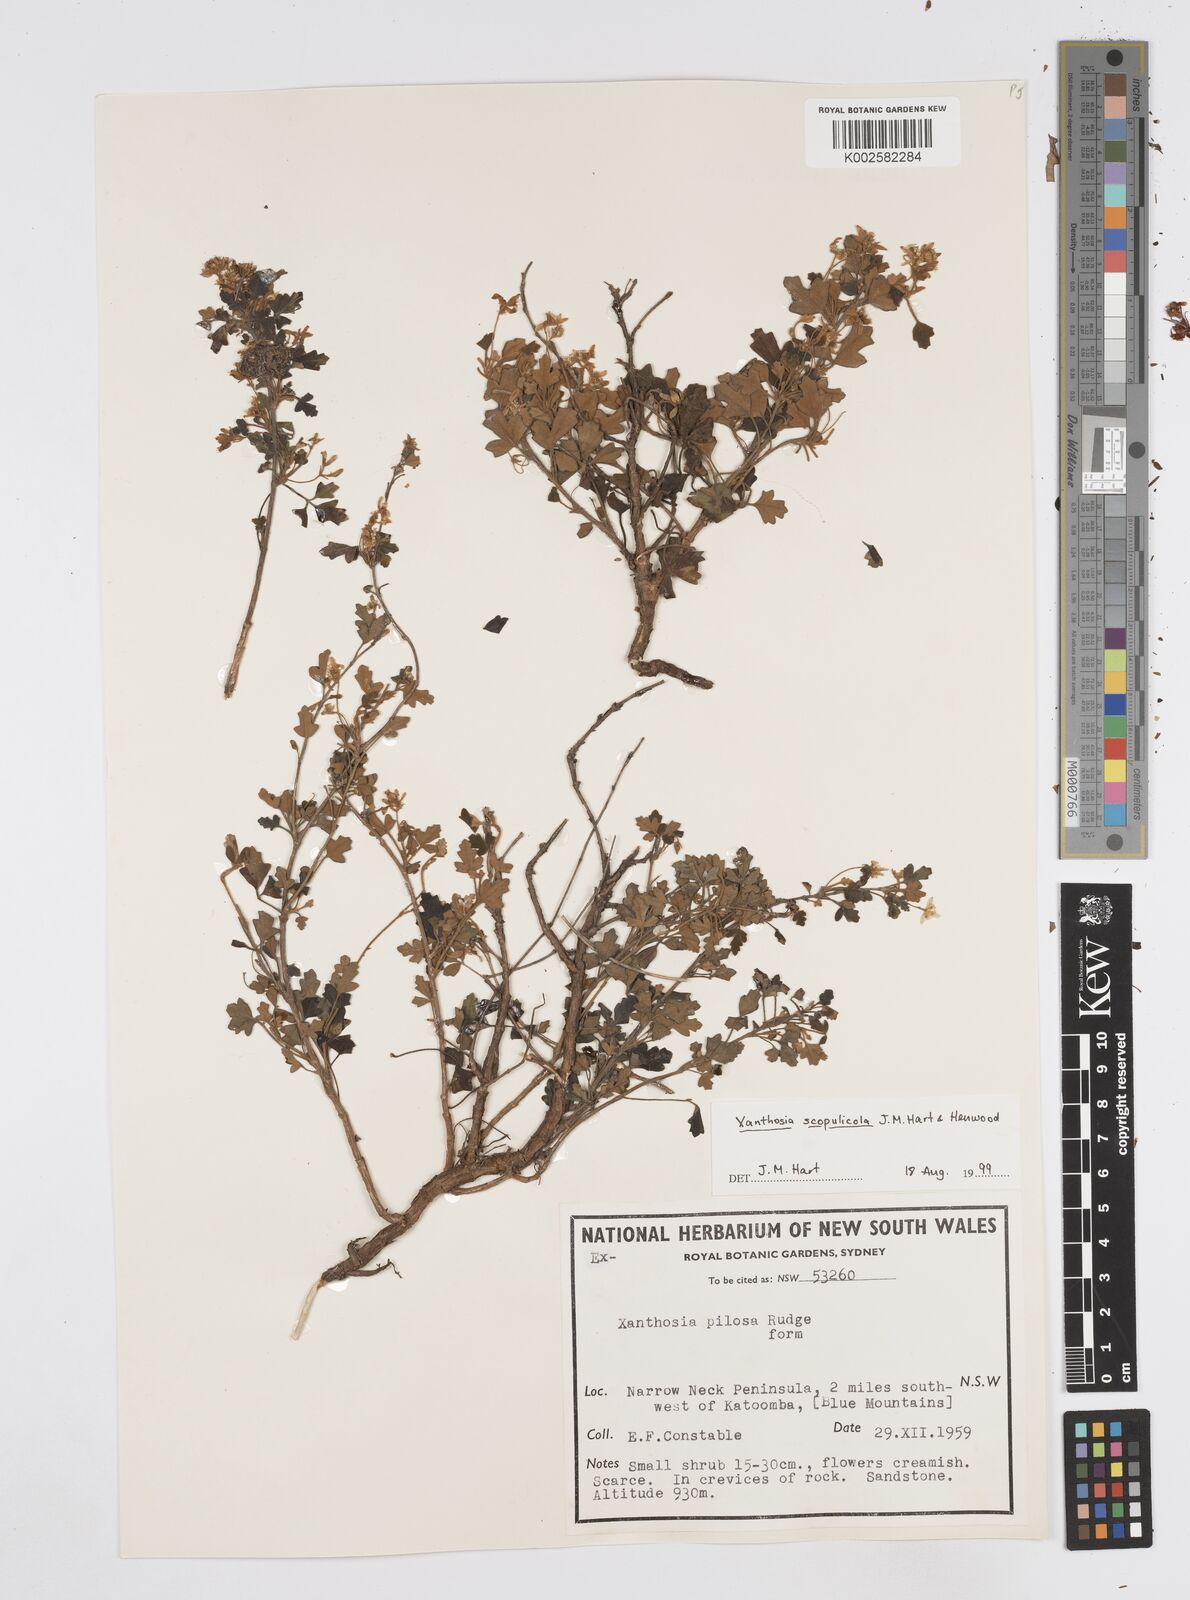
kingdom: Plantae
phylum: Tracheophyta
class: Magnoliopsida
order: Apiales
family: Apiaceae
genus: Xanthosia
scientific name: Xanthosia scopulicola
